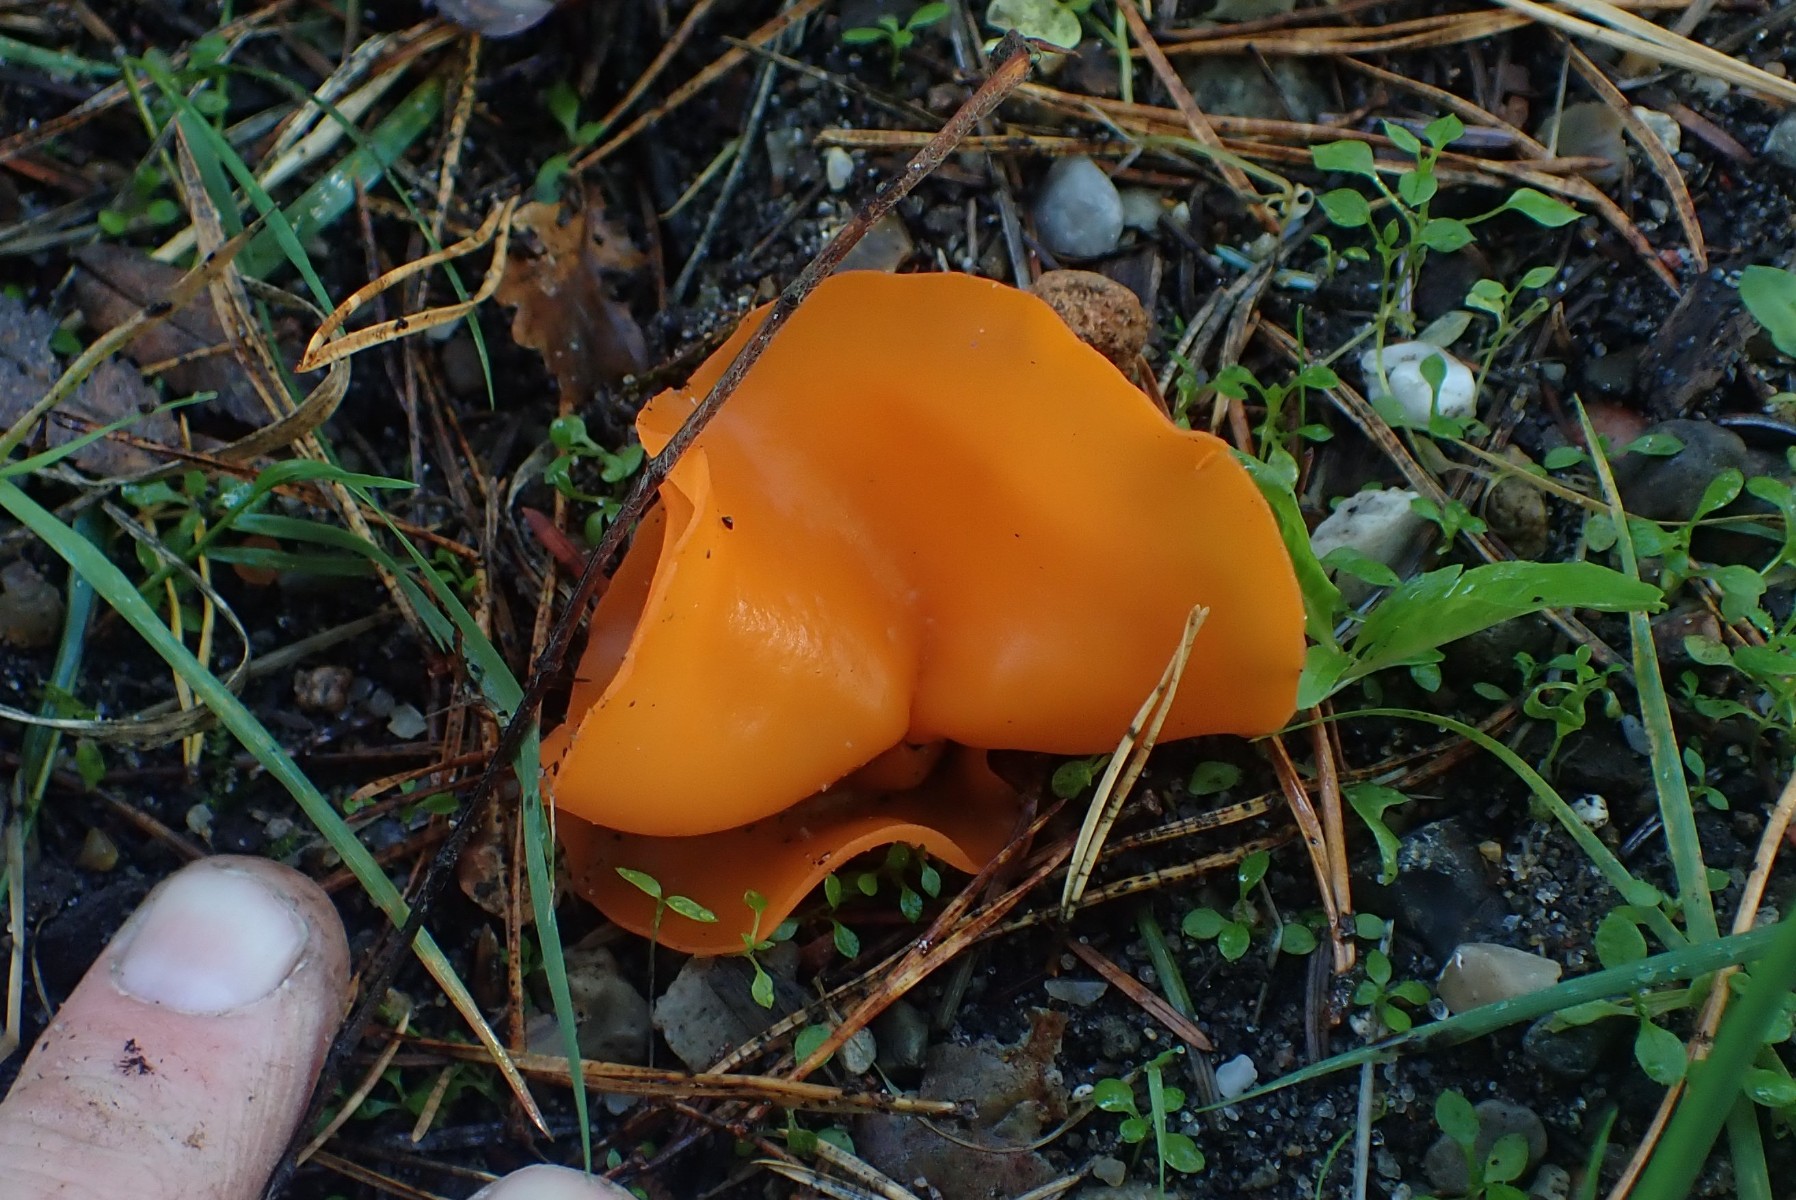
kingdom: Fungi
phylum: Ascomycota
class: Pezizomycetes
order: Pezizales
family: Pyronemataceae
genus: Aleuria
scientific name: Aleuria aurantia
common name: almindelig orangebæger
